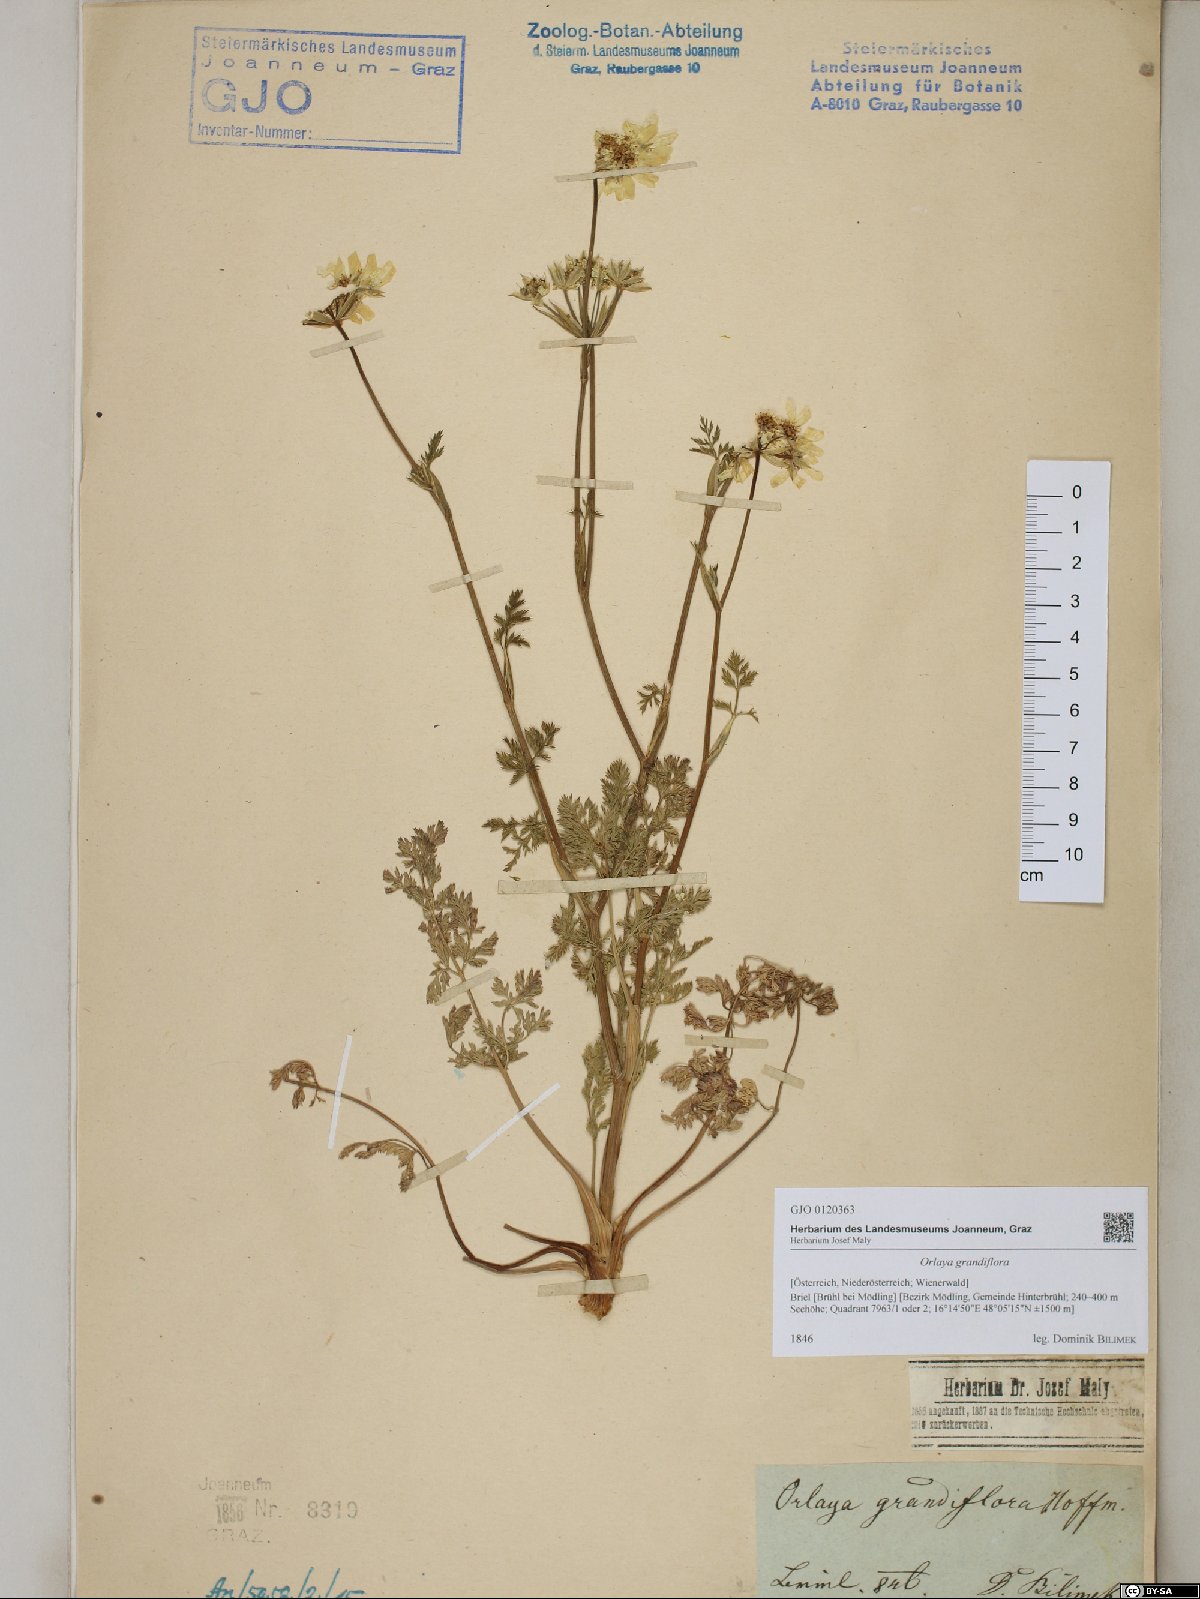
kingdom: Plantae
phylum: Tracheophyta
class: Magnoliopsida
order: Apiales
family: Apiaceae
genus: Orlaya
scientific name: Orlaya grandiflora
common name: White lace flower
